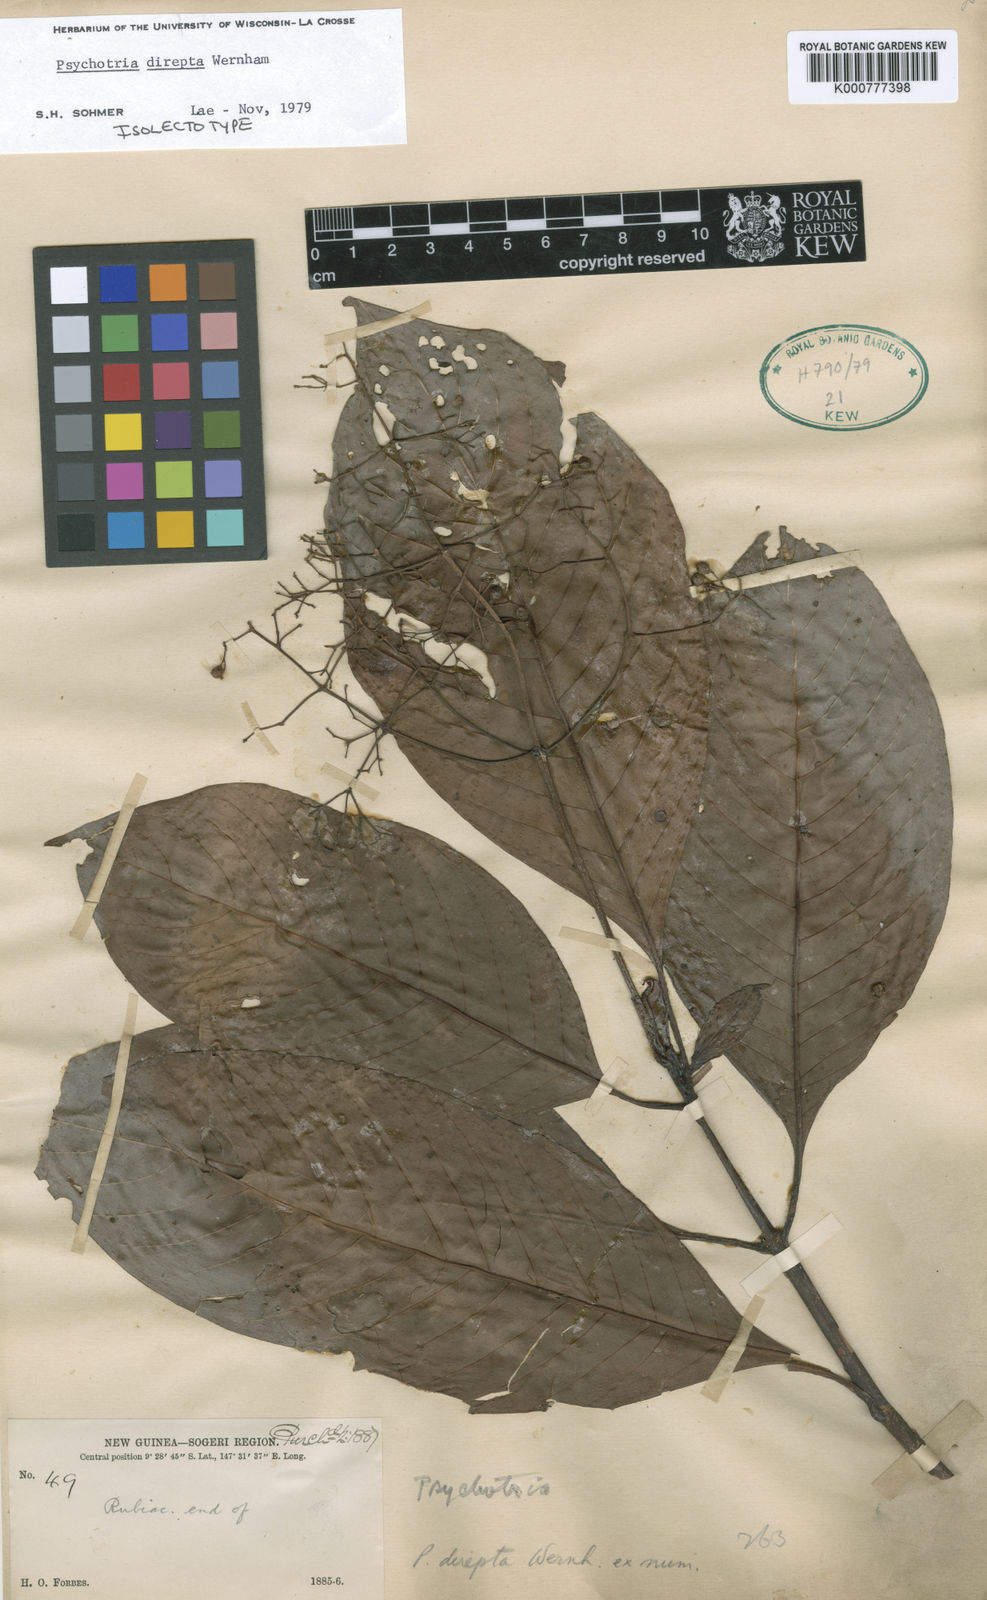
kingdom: Plantae
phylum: Tracheophyta
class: Magnoliopsida
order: Gentianales
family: Rubiaceae
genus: Psychotria
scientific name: Psychotria dipteropodioides
